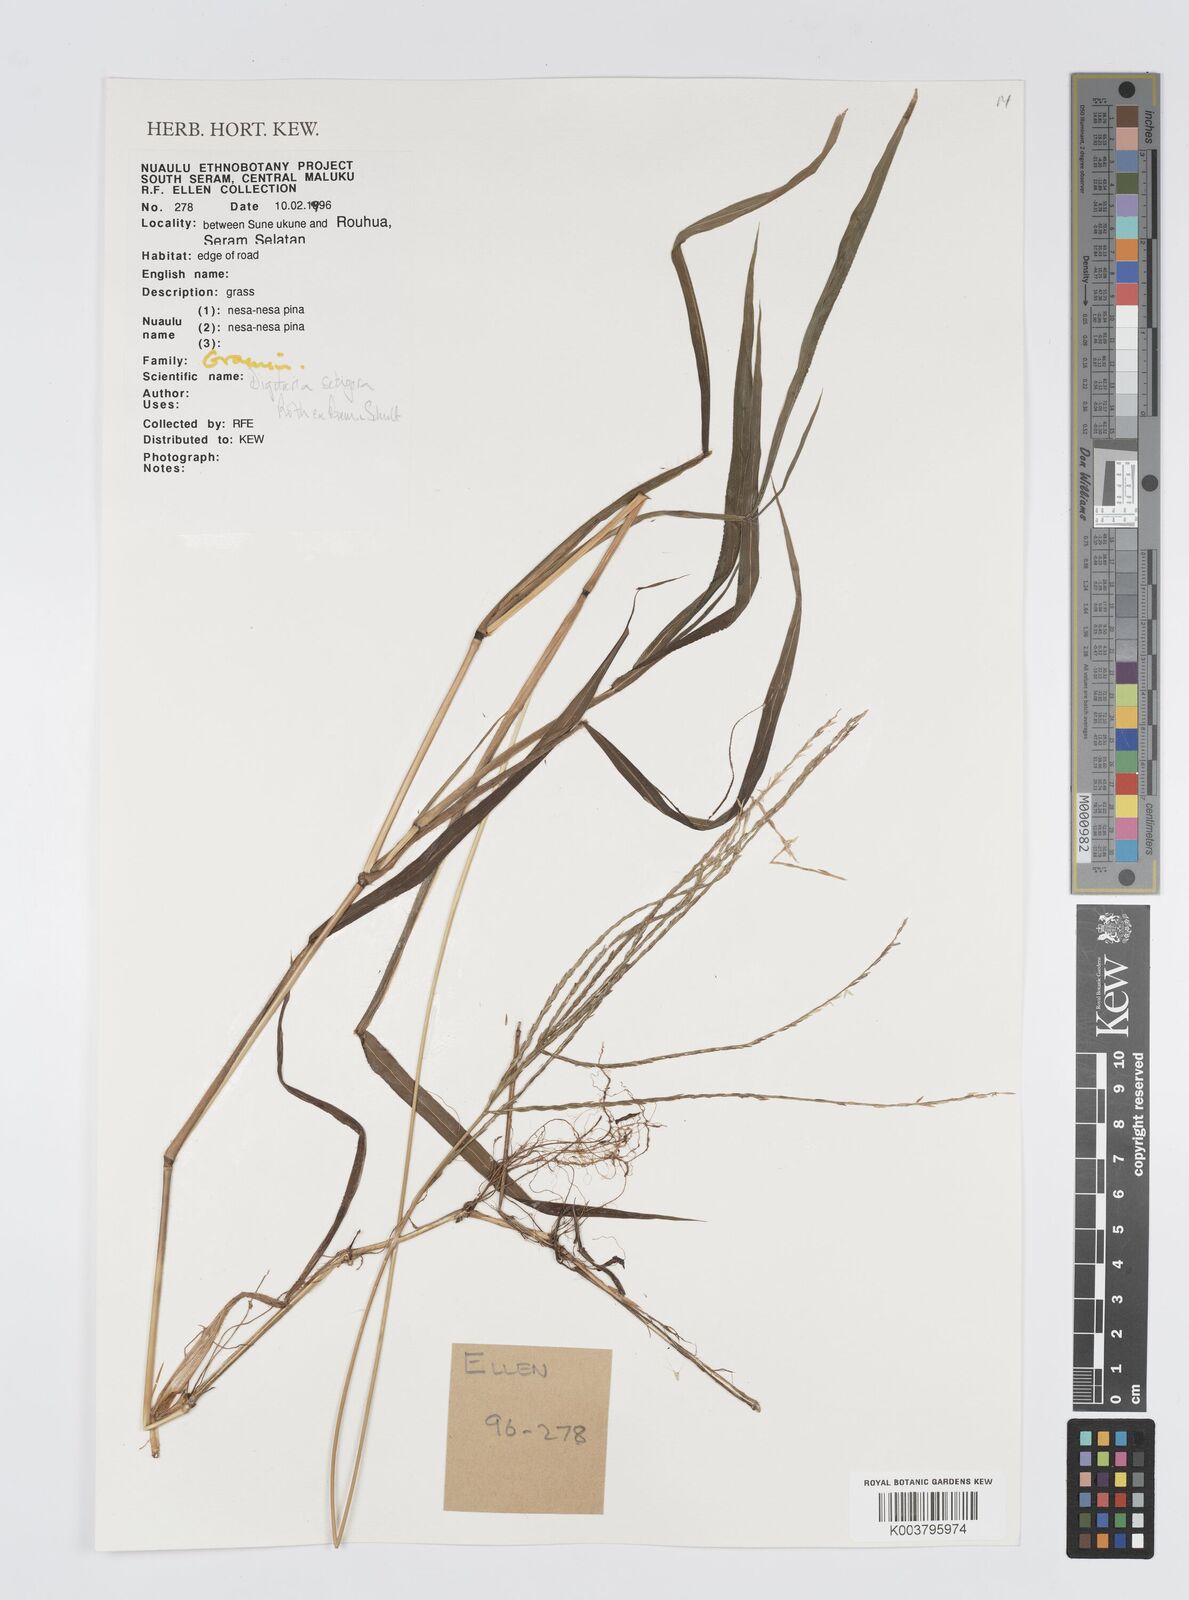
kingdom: Plantae
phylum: Tracheophyta
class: Liliopsida
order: Poales
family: Poaceae
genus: Digitaria
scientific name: Digitaria setigera
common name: East indian crabgrass
